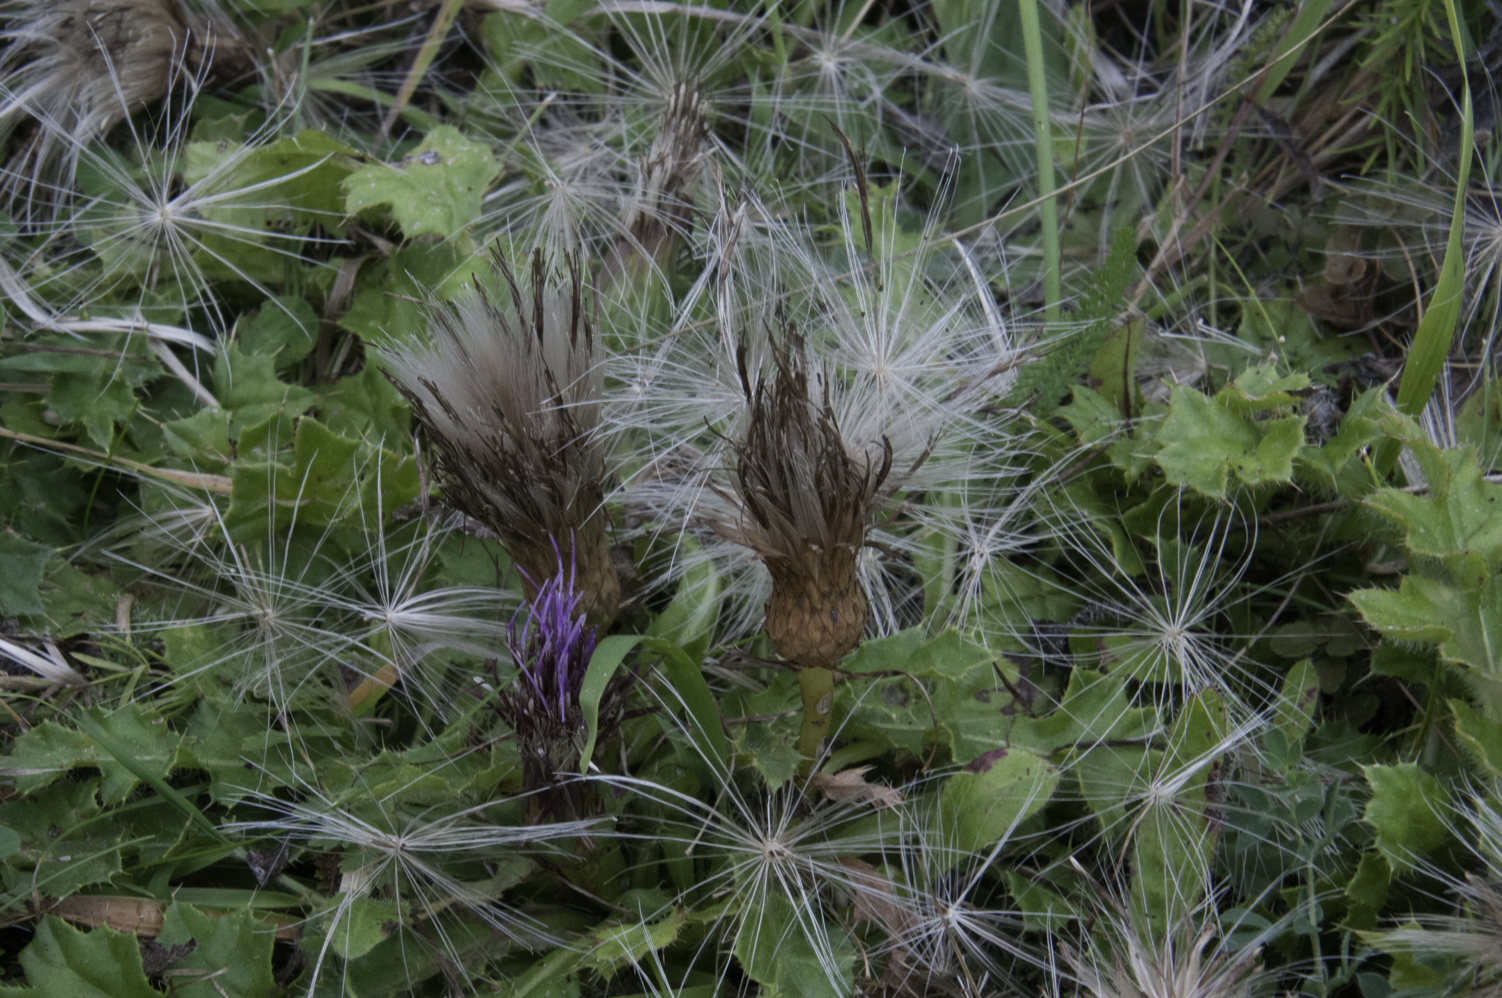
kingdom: Plantae
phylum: Tracheophyta
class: Magnoliopsida
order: Asterales
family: Asteraceae
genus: Cirsium
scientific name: Cirsium acaulon
